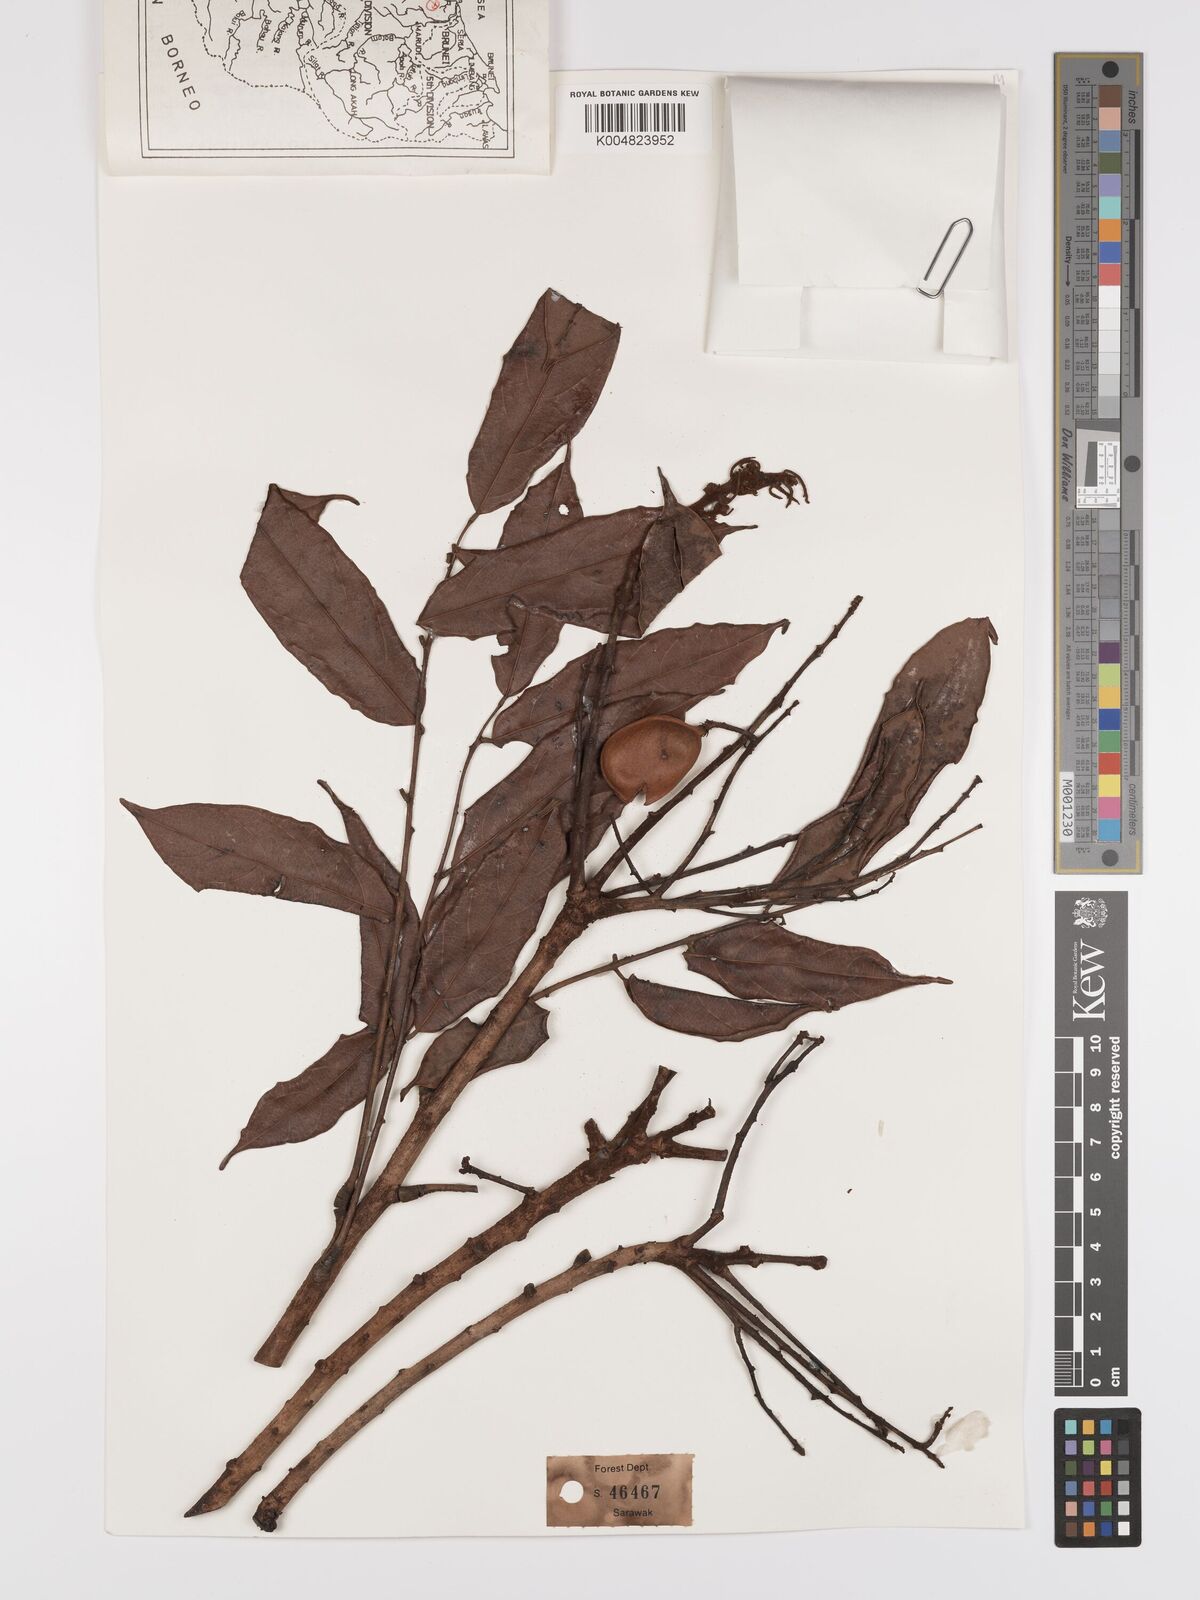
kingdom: Plantae
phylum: Tracheophyta
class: Magnoliopsida
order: Oxalidales
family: Connaraceae
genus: Connarus
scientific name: Connarus odoratus
